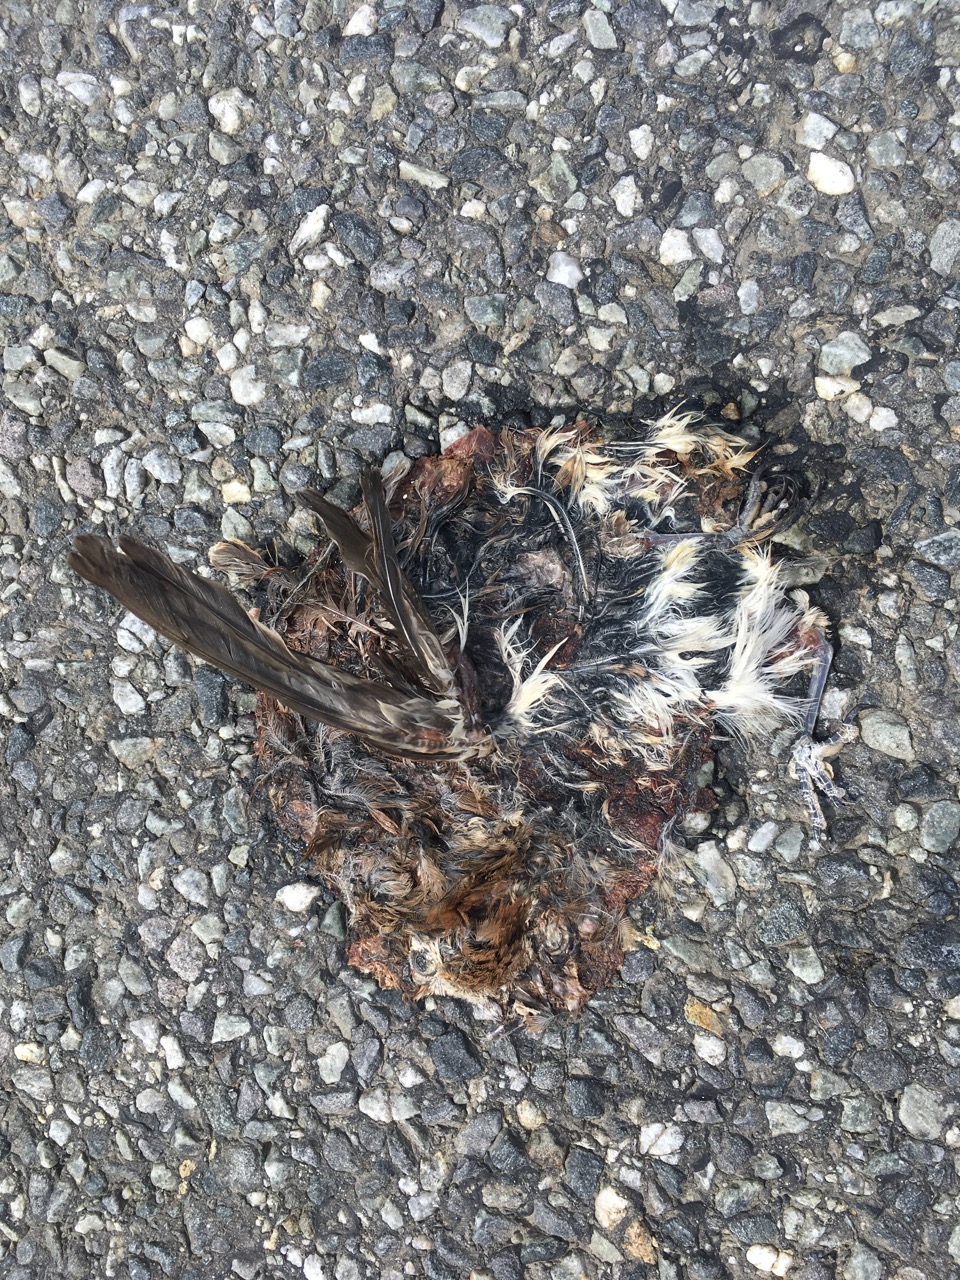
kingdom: Animalia
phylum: Chordata
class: Aves
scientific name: Aves
